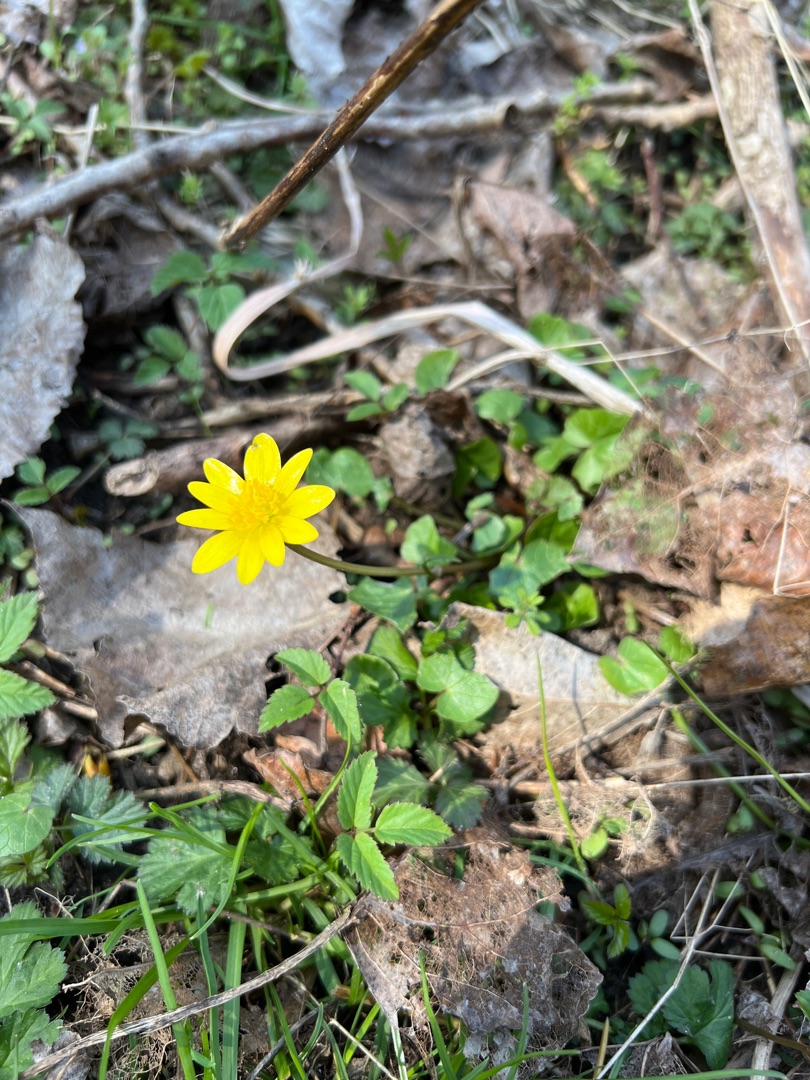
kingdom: Plantae
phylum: Tracheophyta
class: Magnoliopsida
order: Ranunculales
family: Ranunculaceae
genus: Ficaria
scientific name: Ficaria verna
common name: Almindelig vorterod
